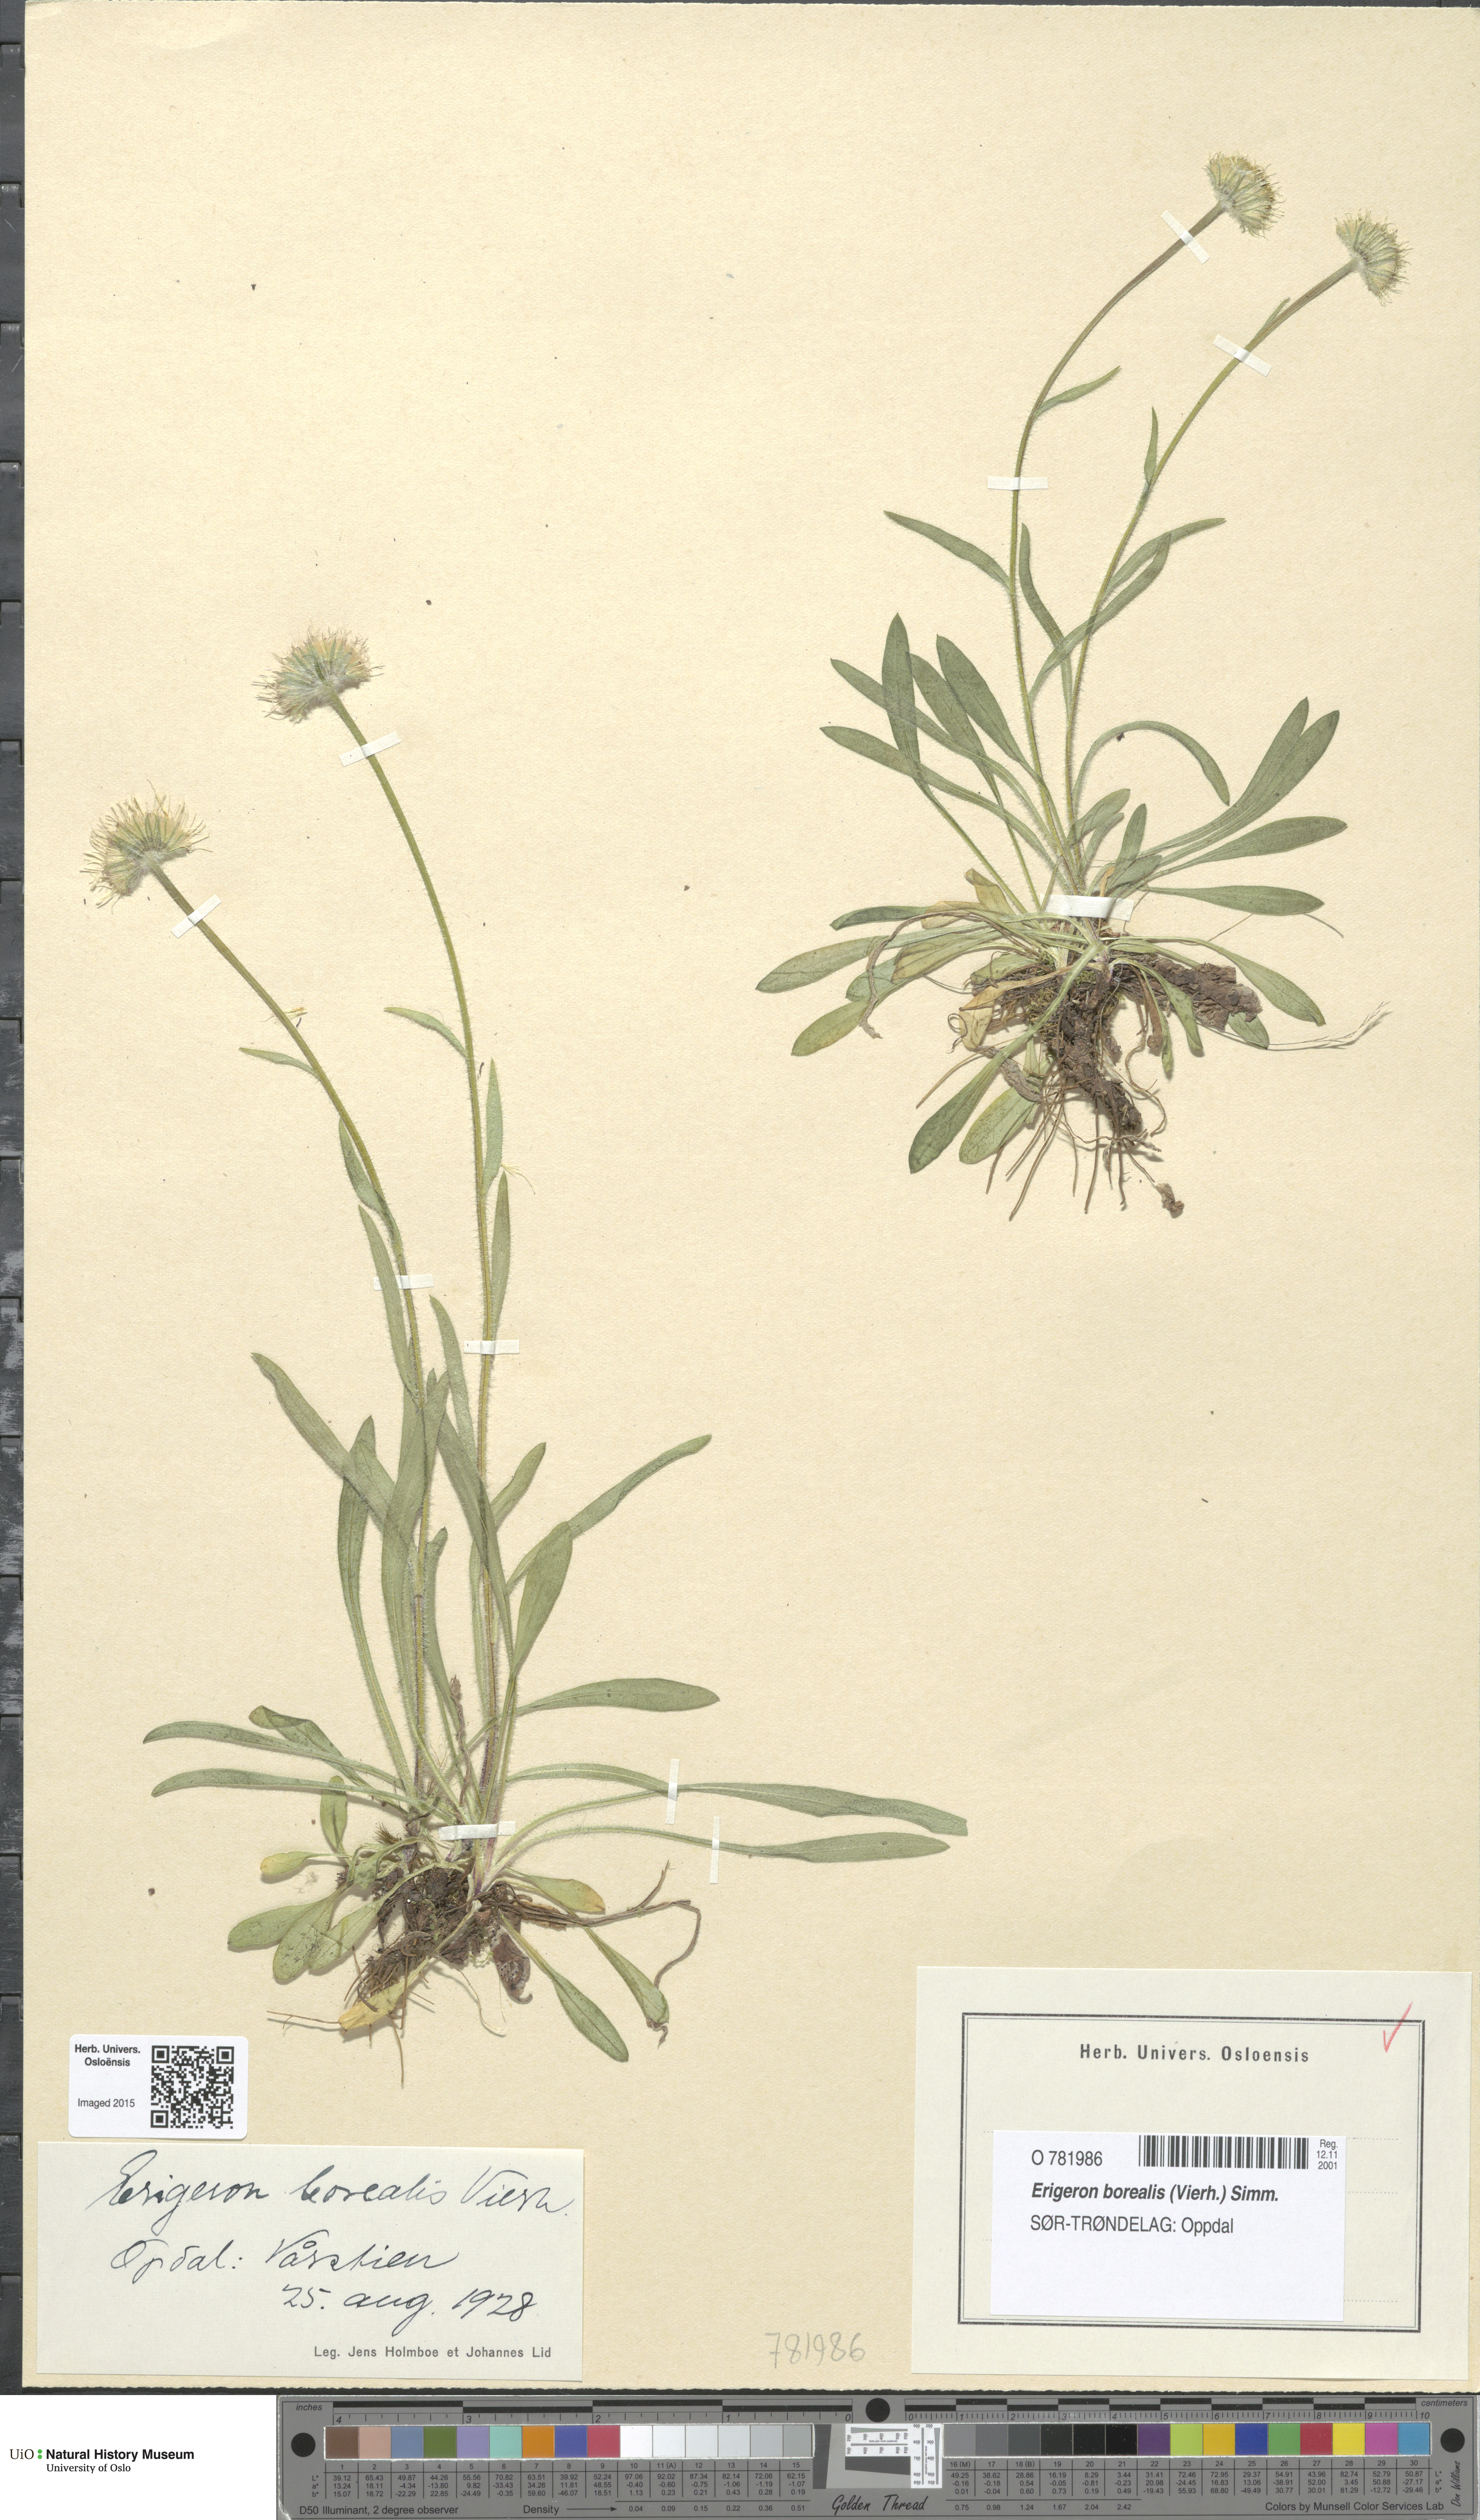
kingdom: Plantae
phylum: Tracheophyta
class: Magnoliopsida
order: Asterales
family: Asteraceae
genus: Erigeron
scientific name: Erigeron borealis
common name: Alpine fleabane
